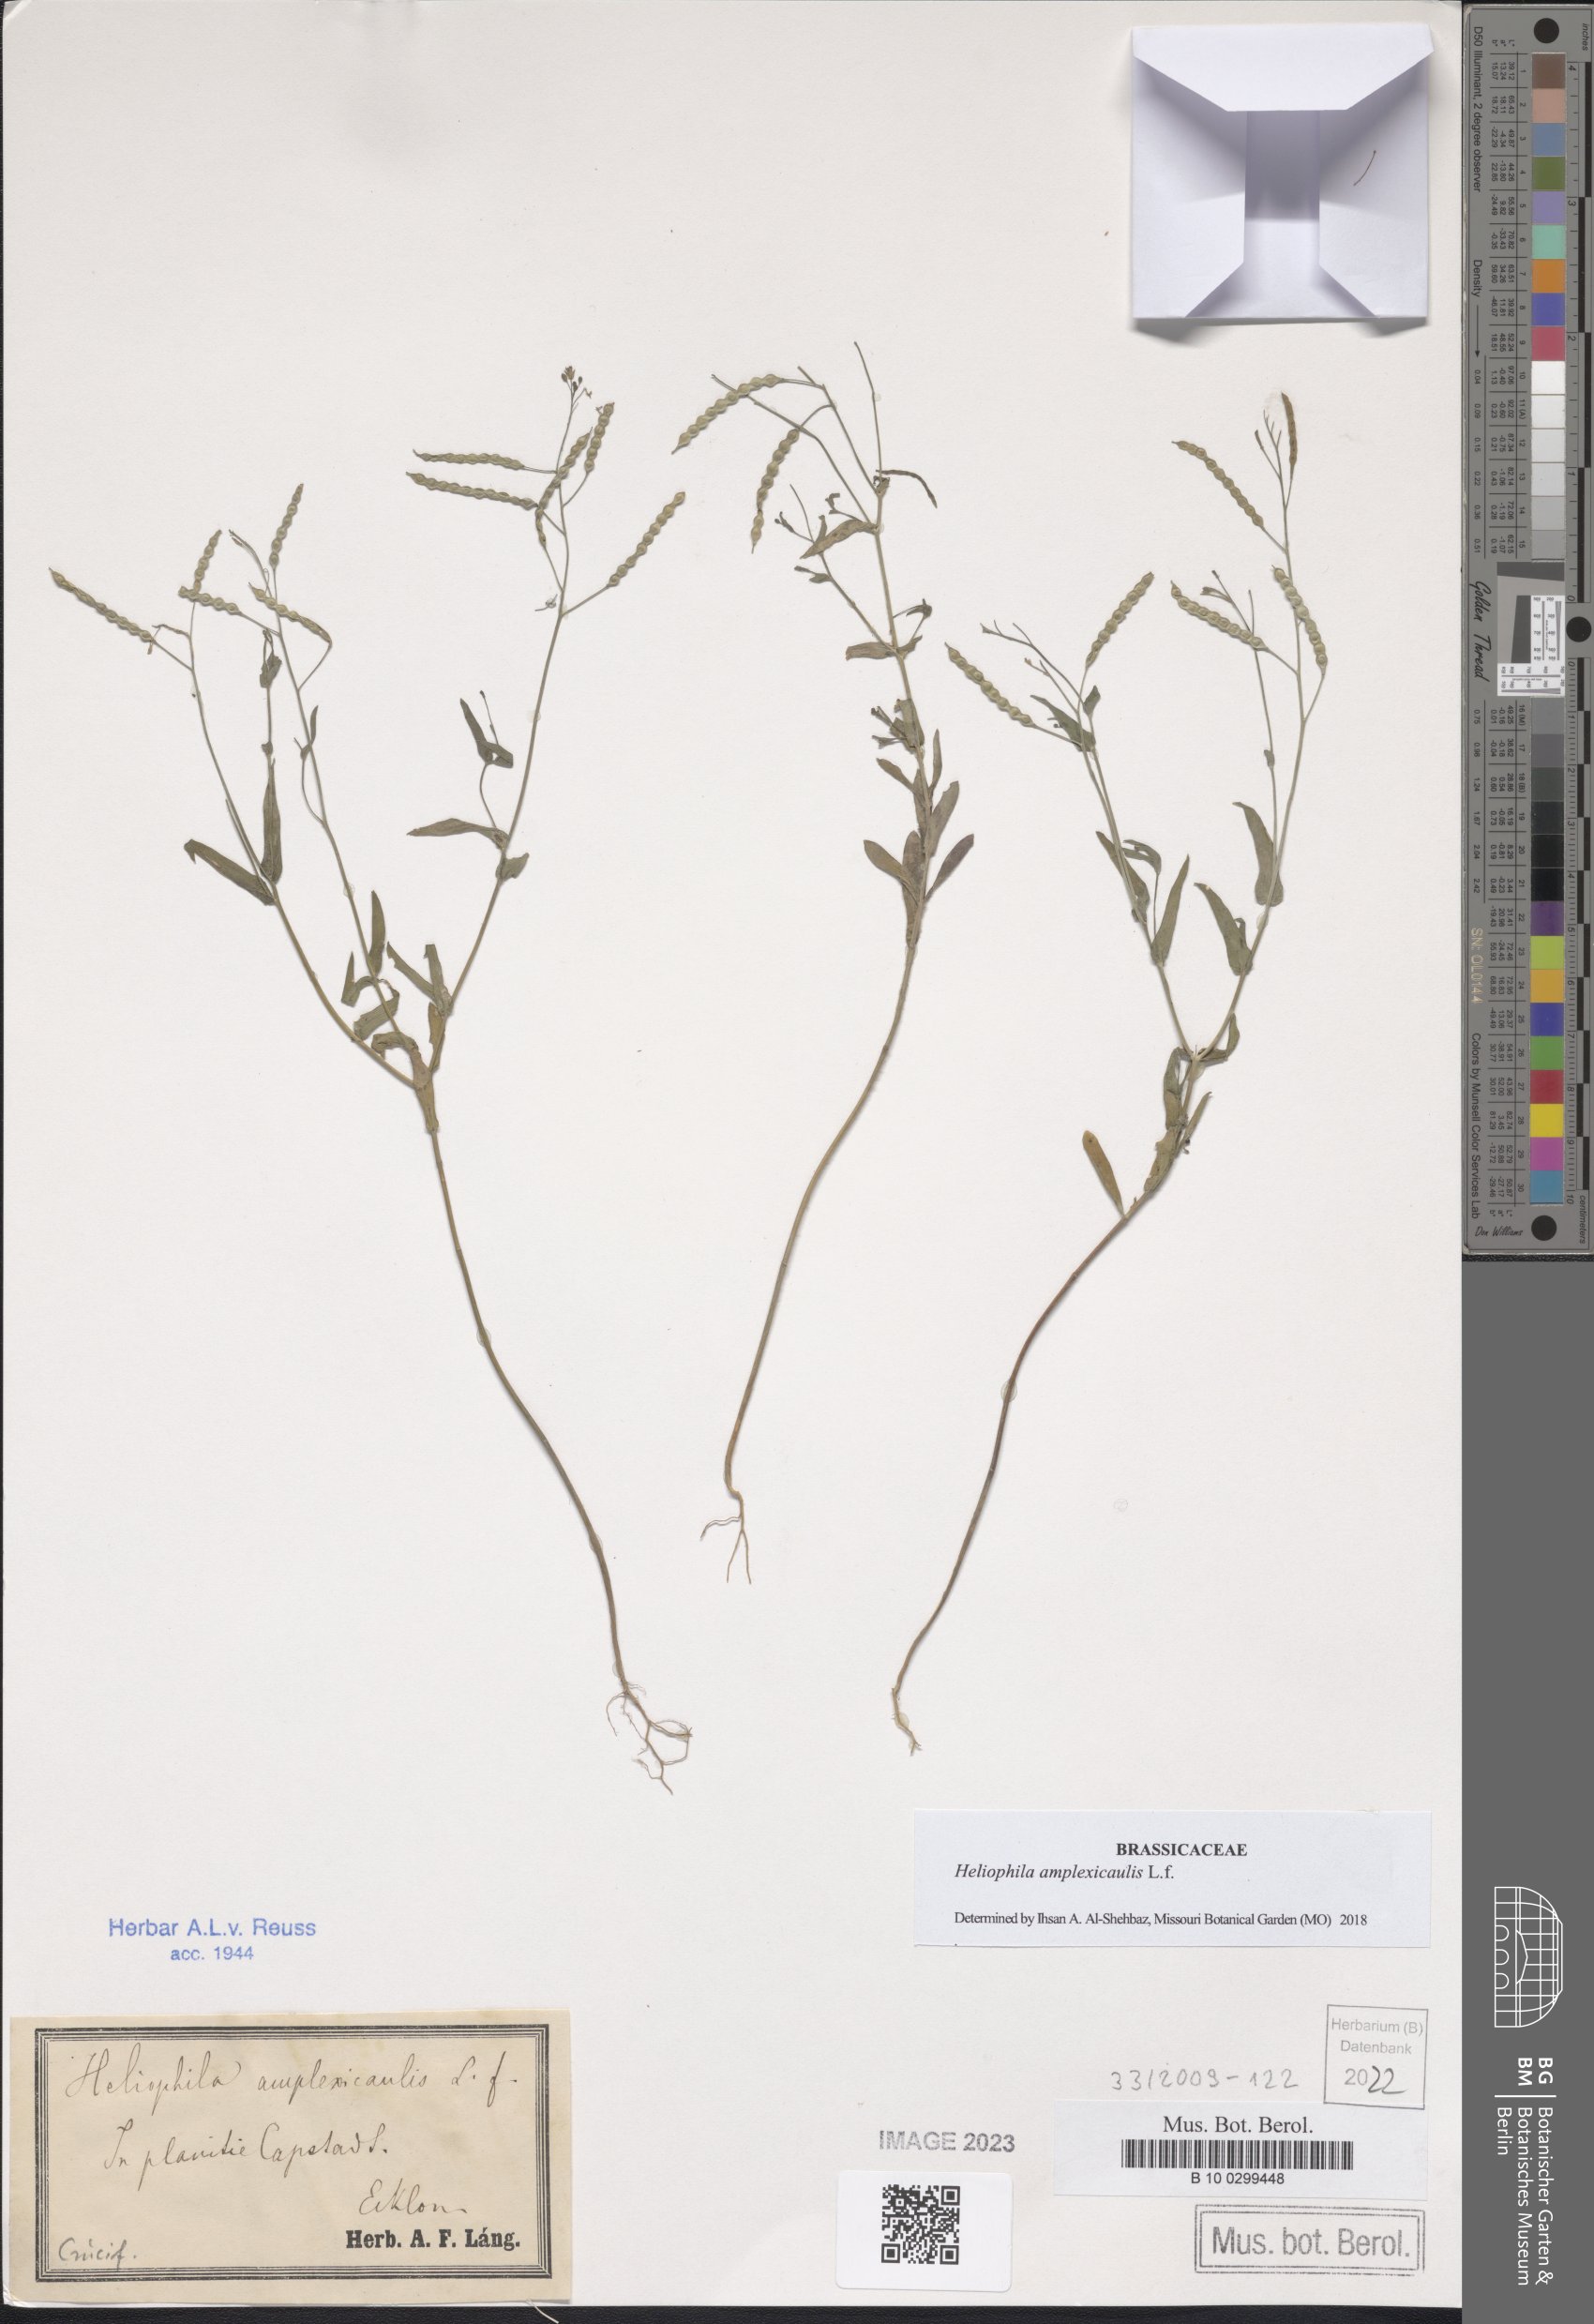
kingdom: Plantae
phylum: Tracheophyta
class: Magnoliopsida
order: Brassicales
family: Brassicaceae
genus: Heliophila
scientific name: Heliophila amplexicaulis
